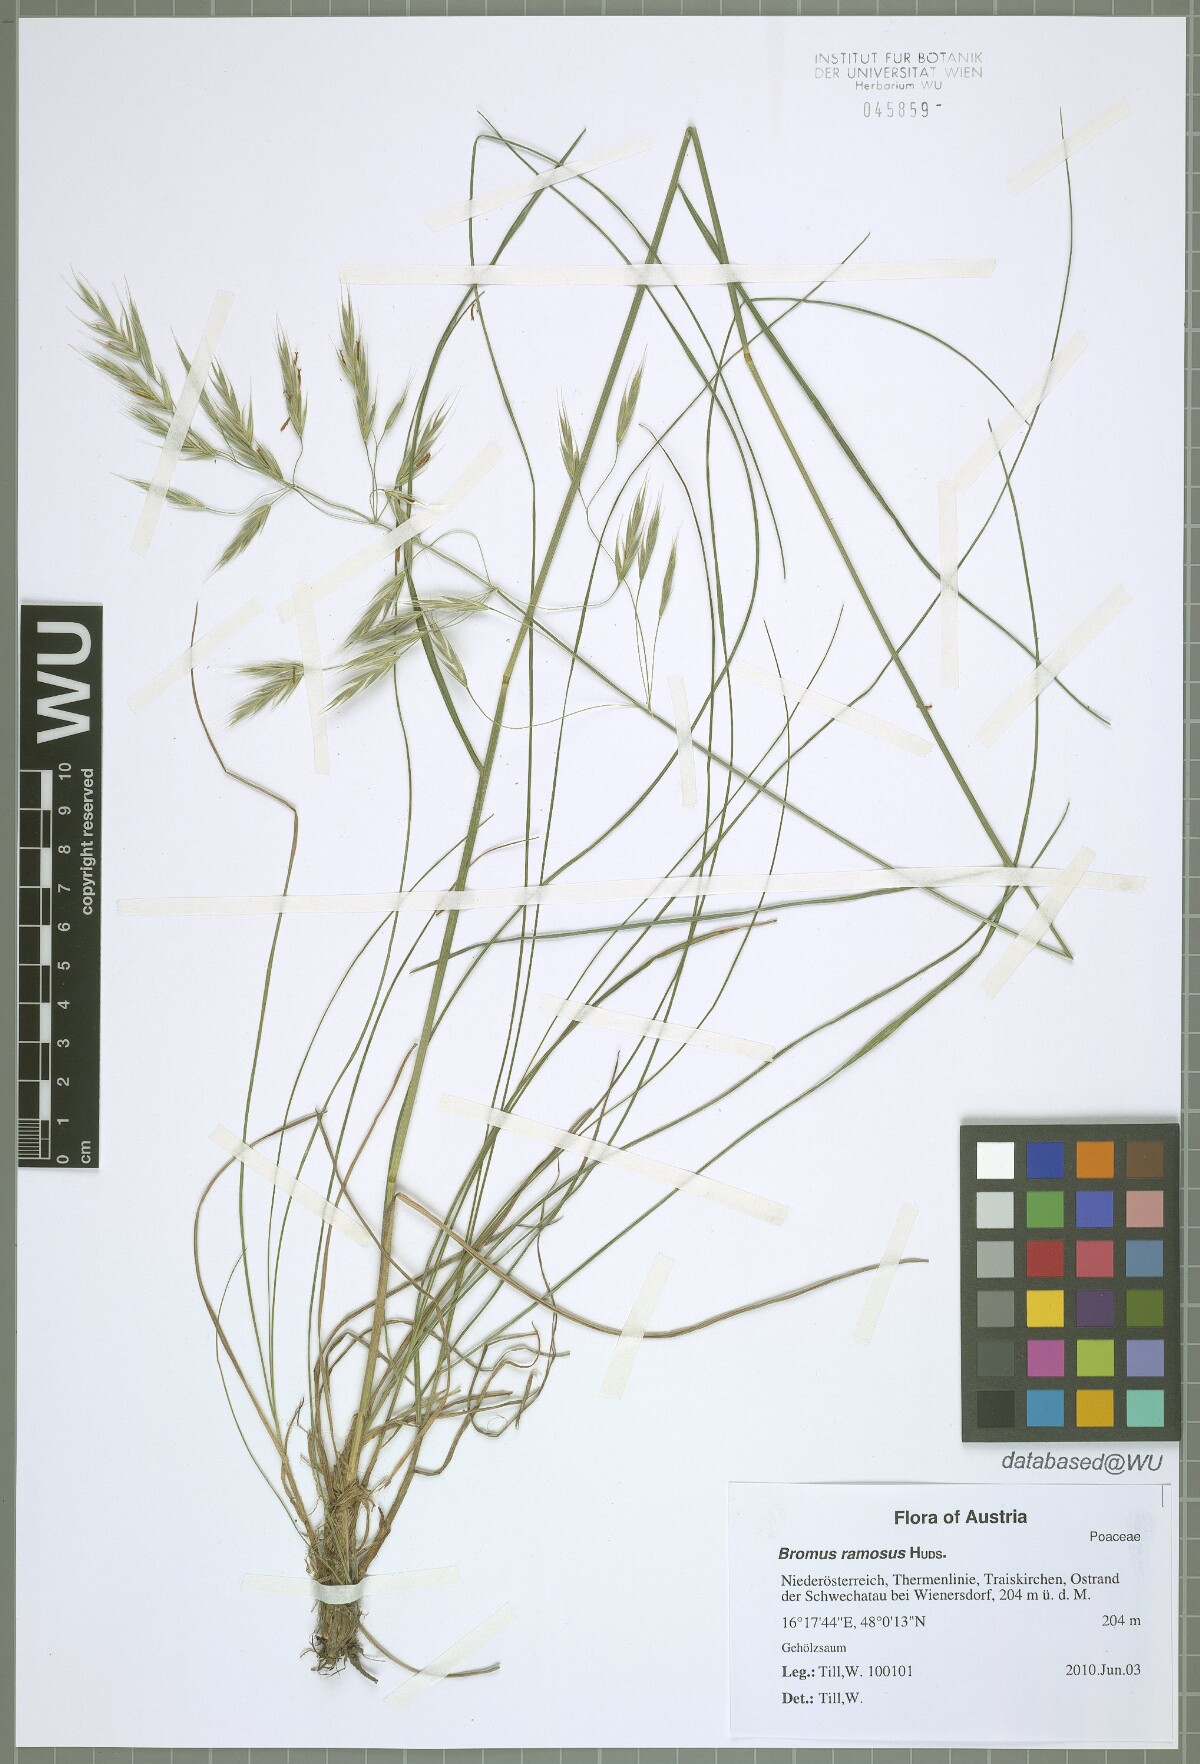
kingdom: Plantae
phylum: Tracheophyta
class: Liliopsida
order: Poales
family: Poaceae
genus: Bromus
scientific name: Bromus ramosus
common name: Hairy brome
